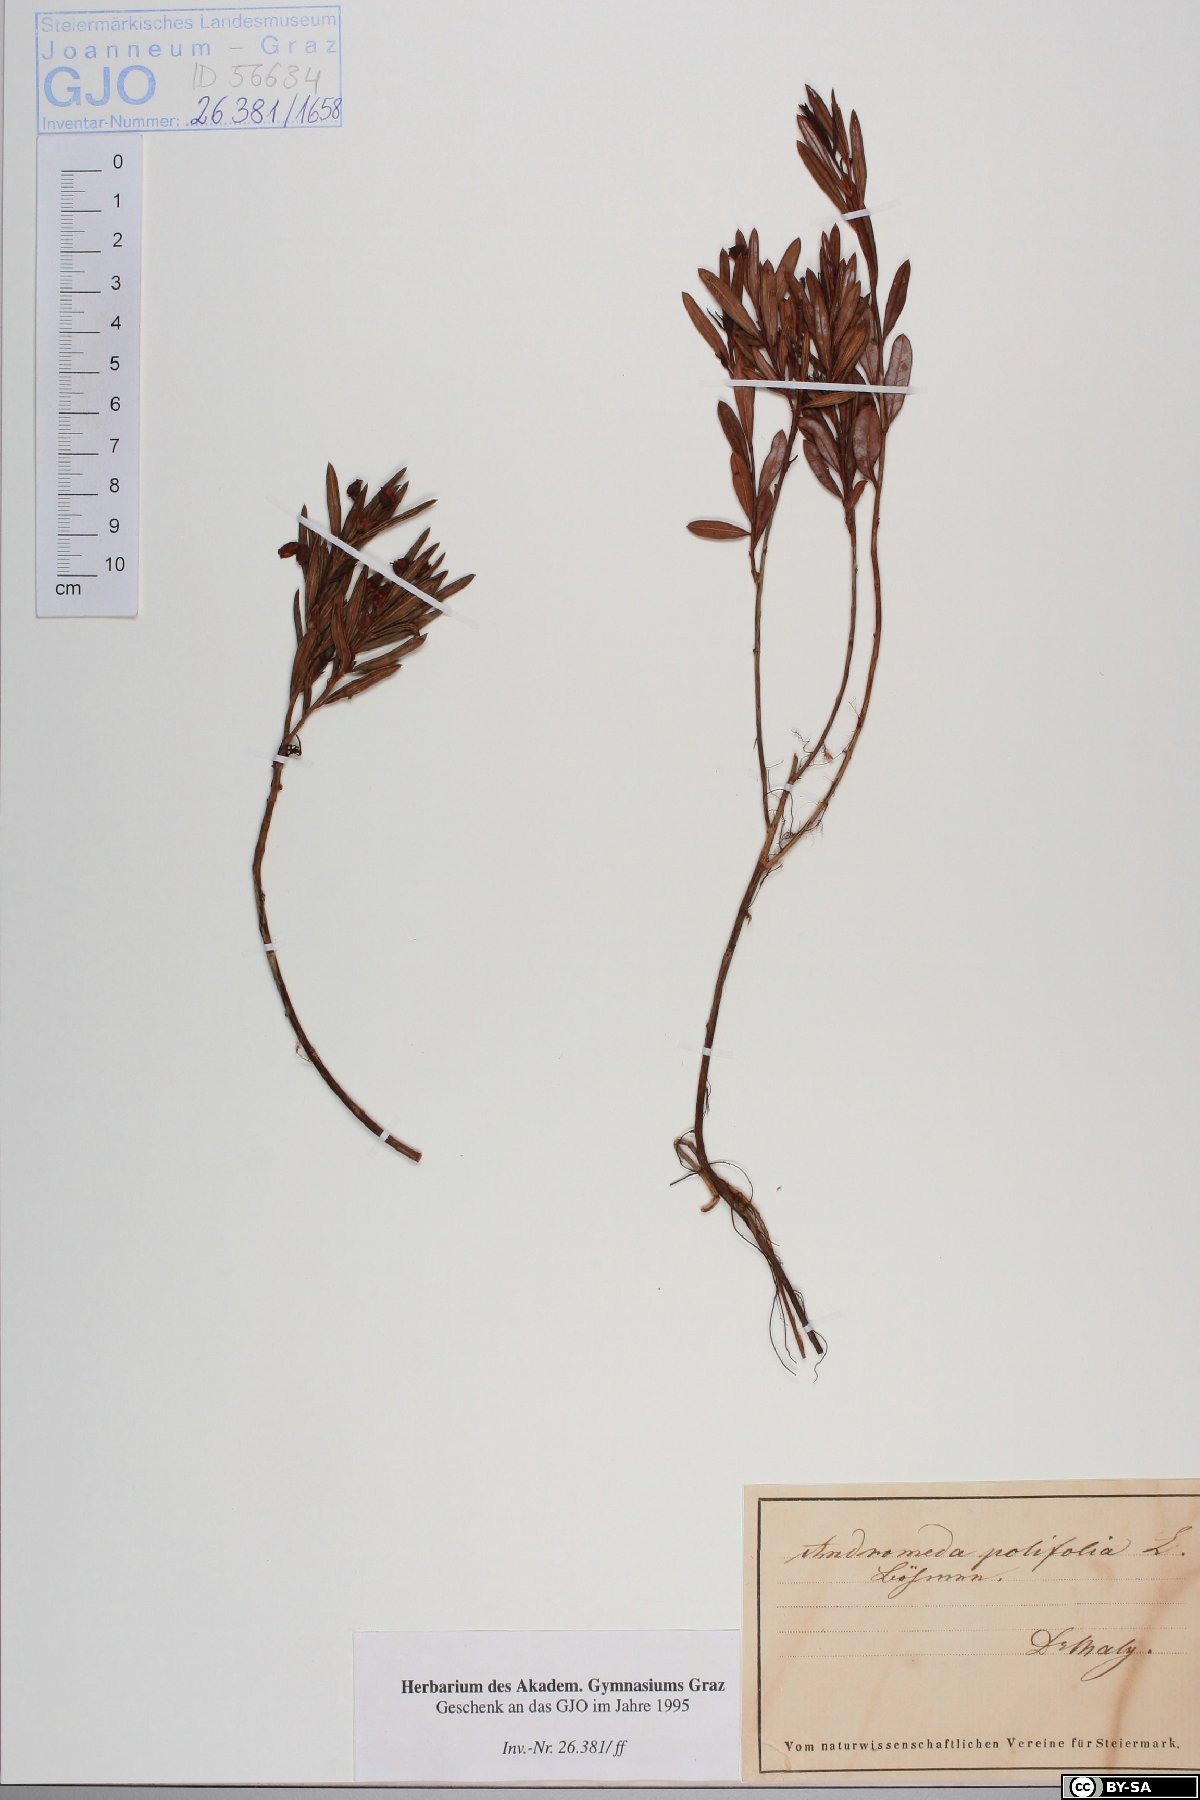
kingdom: Plantae
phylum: Tracheophyta
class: Magnoliopsida
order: Ericales
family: Ericaceae
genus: Andromeda
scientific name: Andromeda polifolia
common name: Bog-rosemary
